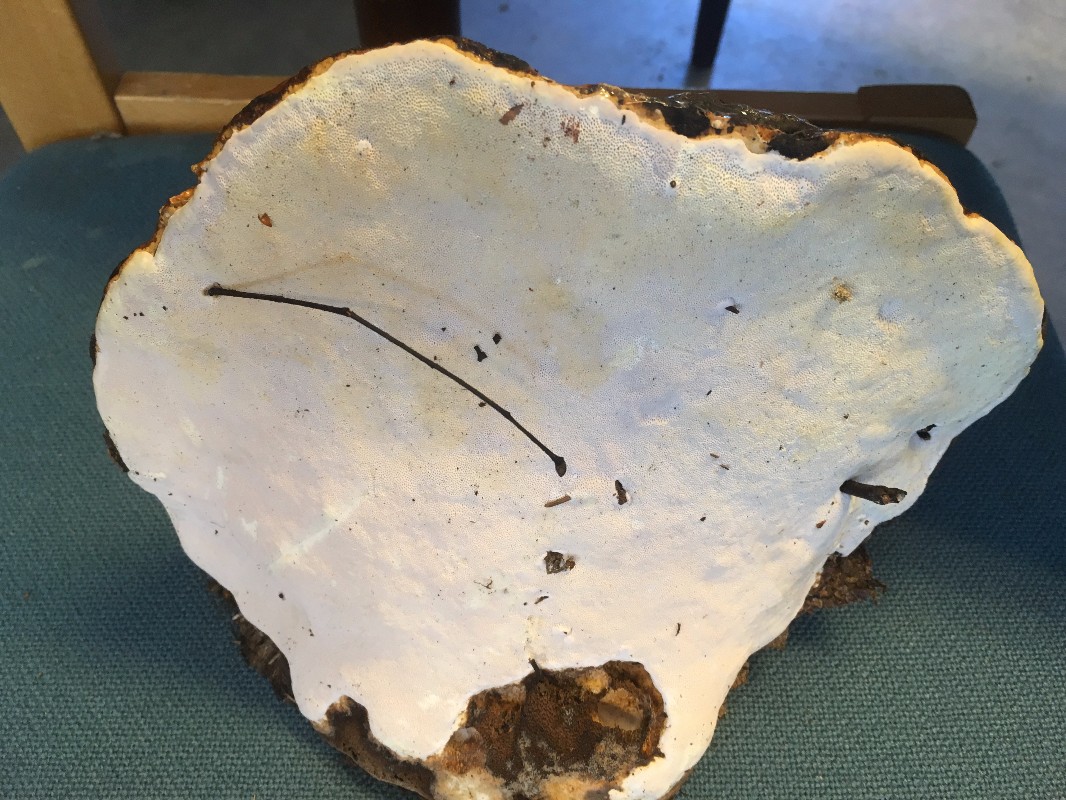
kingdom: Fungi
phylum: Basidiomycota
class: Agaricomycetes
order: Polyporales
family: Fomitopsidaceae
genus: Fomitopsis
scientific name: Fomitopsis pinicola
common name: randbæltet hovporesvamp
